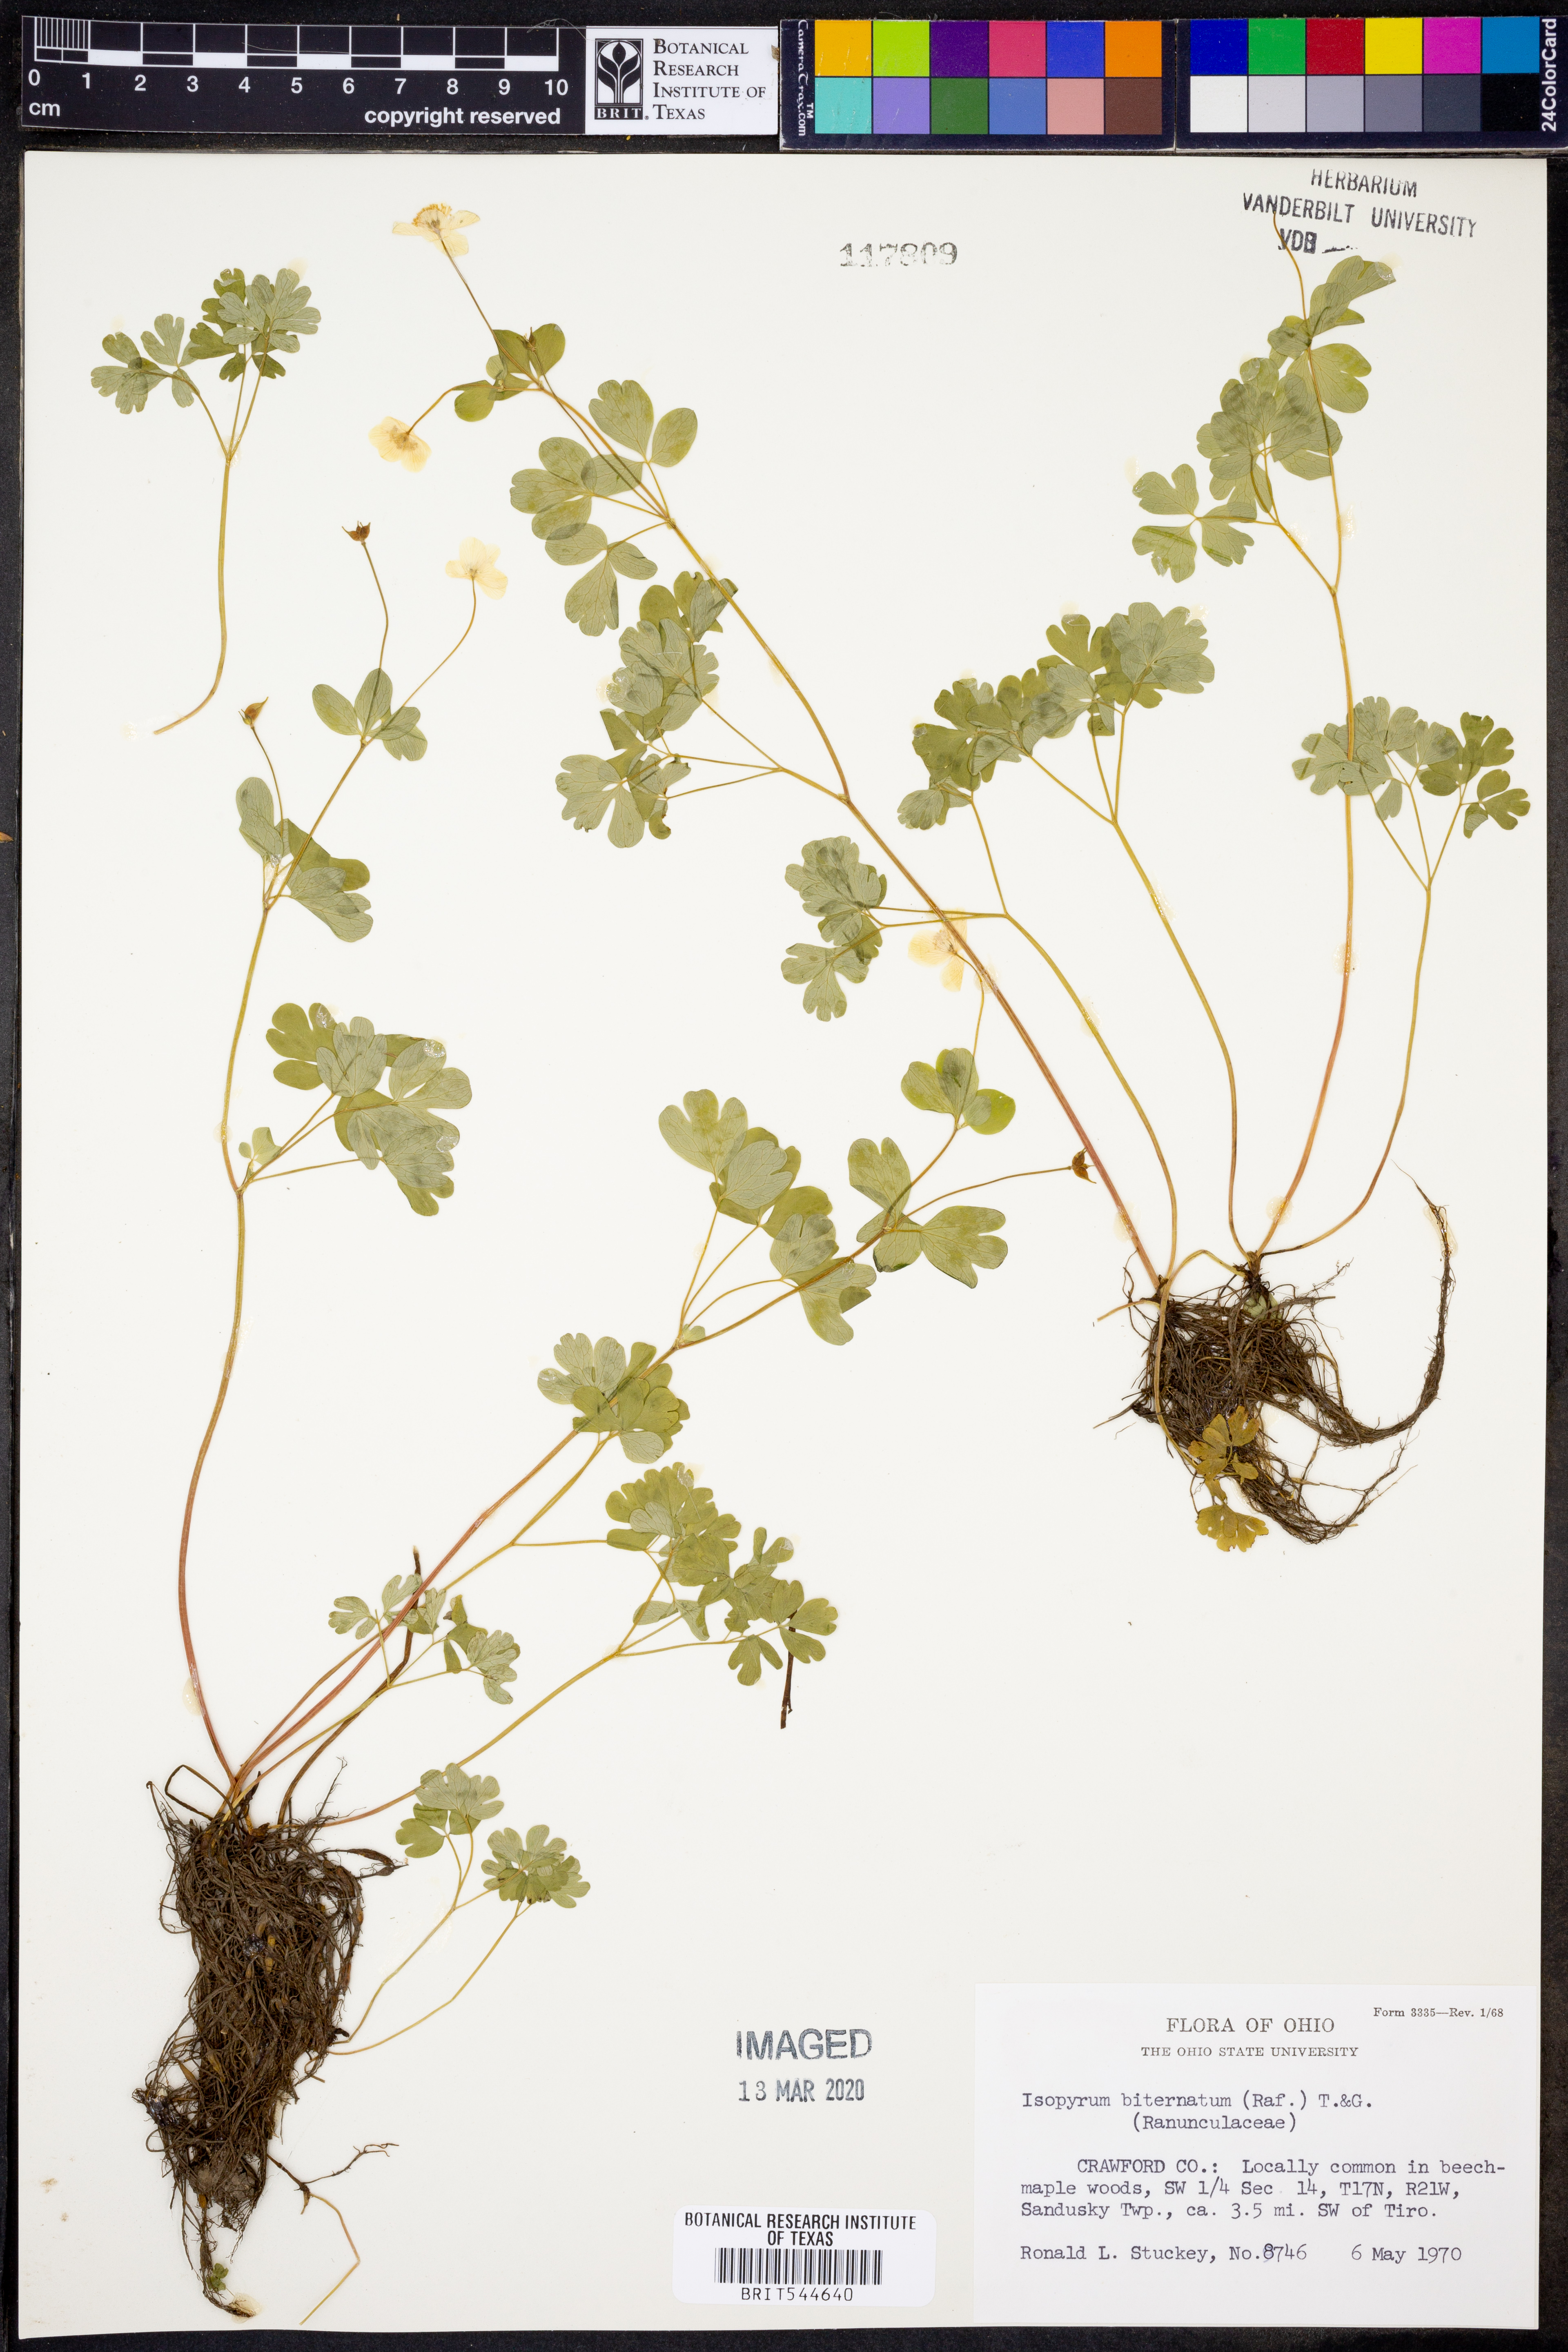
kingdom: Plantae
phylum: Tracheophyta
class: Magnoliopsida
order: Ranunculales
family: Ranunculaceae
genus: Enemion
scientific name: Enemion biternatum
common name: Eastern false rue-anemone
